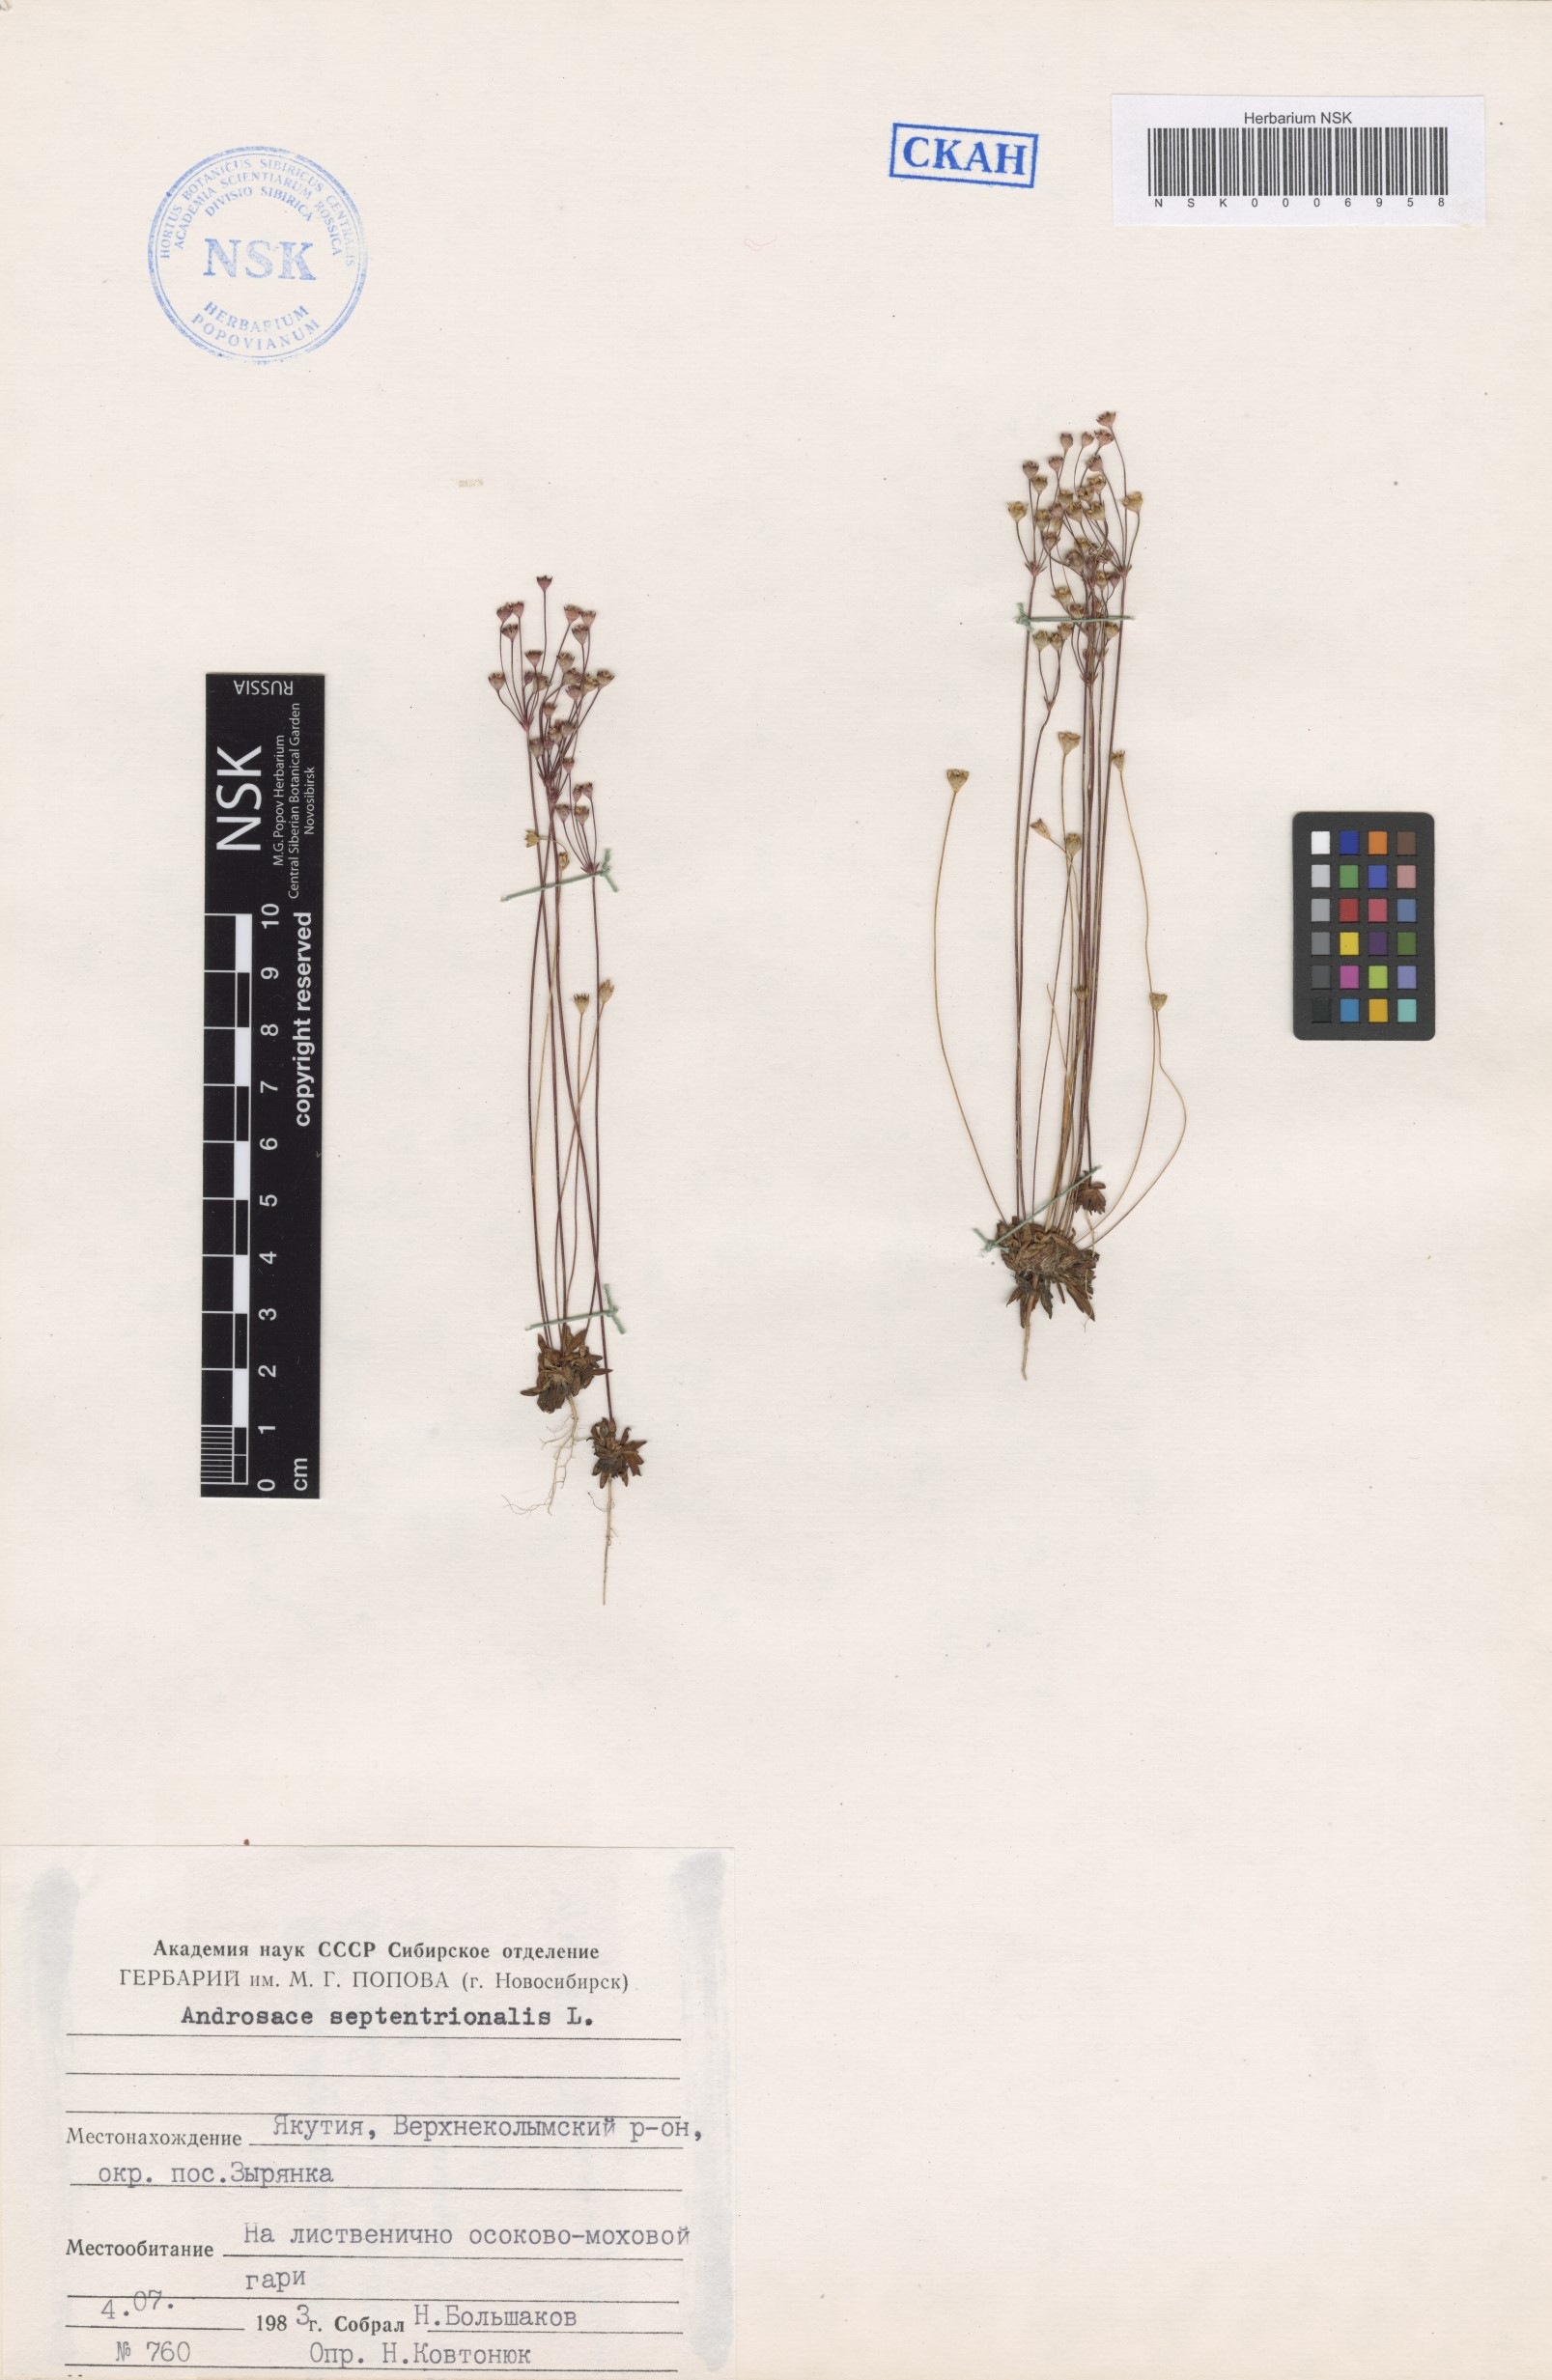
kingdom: Plantae
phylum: Tracheophyta
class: Magnoliopsida
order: Ericales
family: Primulaceae
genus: Androsace
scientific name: Androsace septentrionalis
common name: Hairy northern fairy-candelabra
